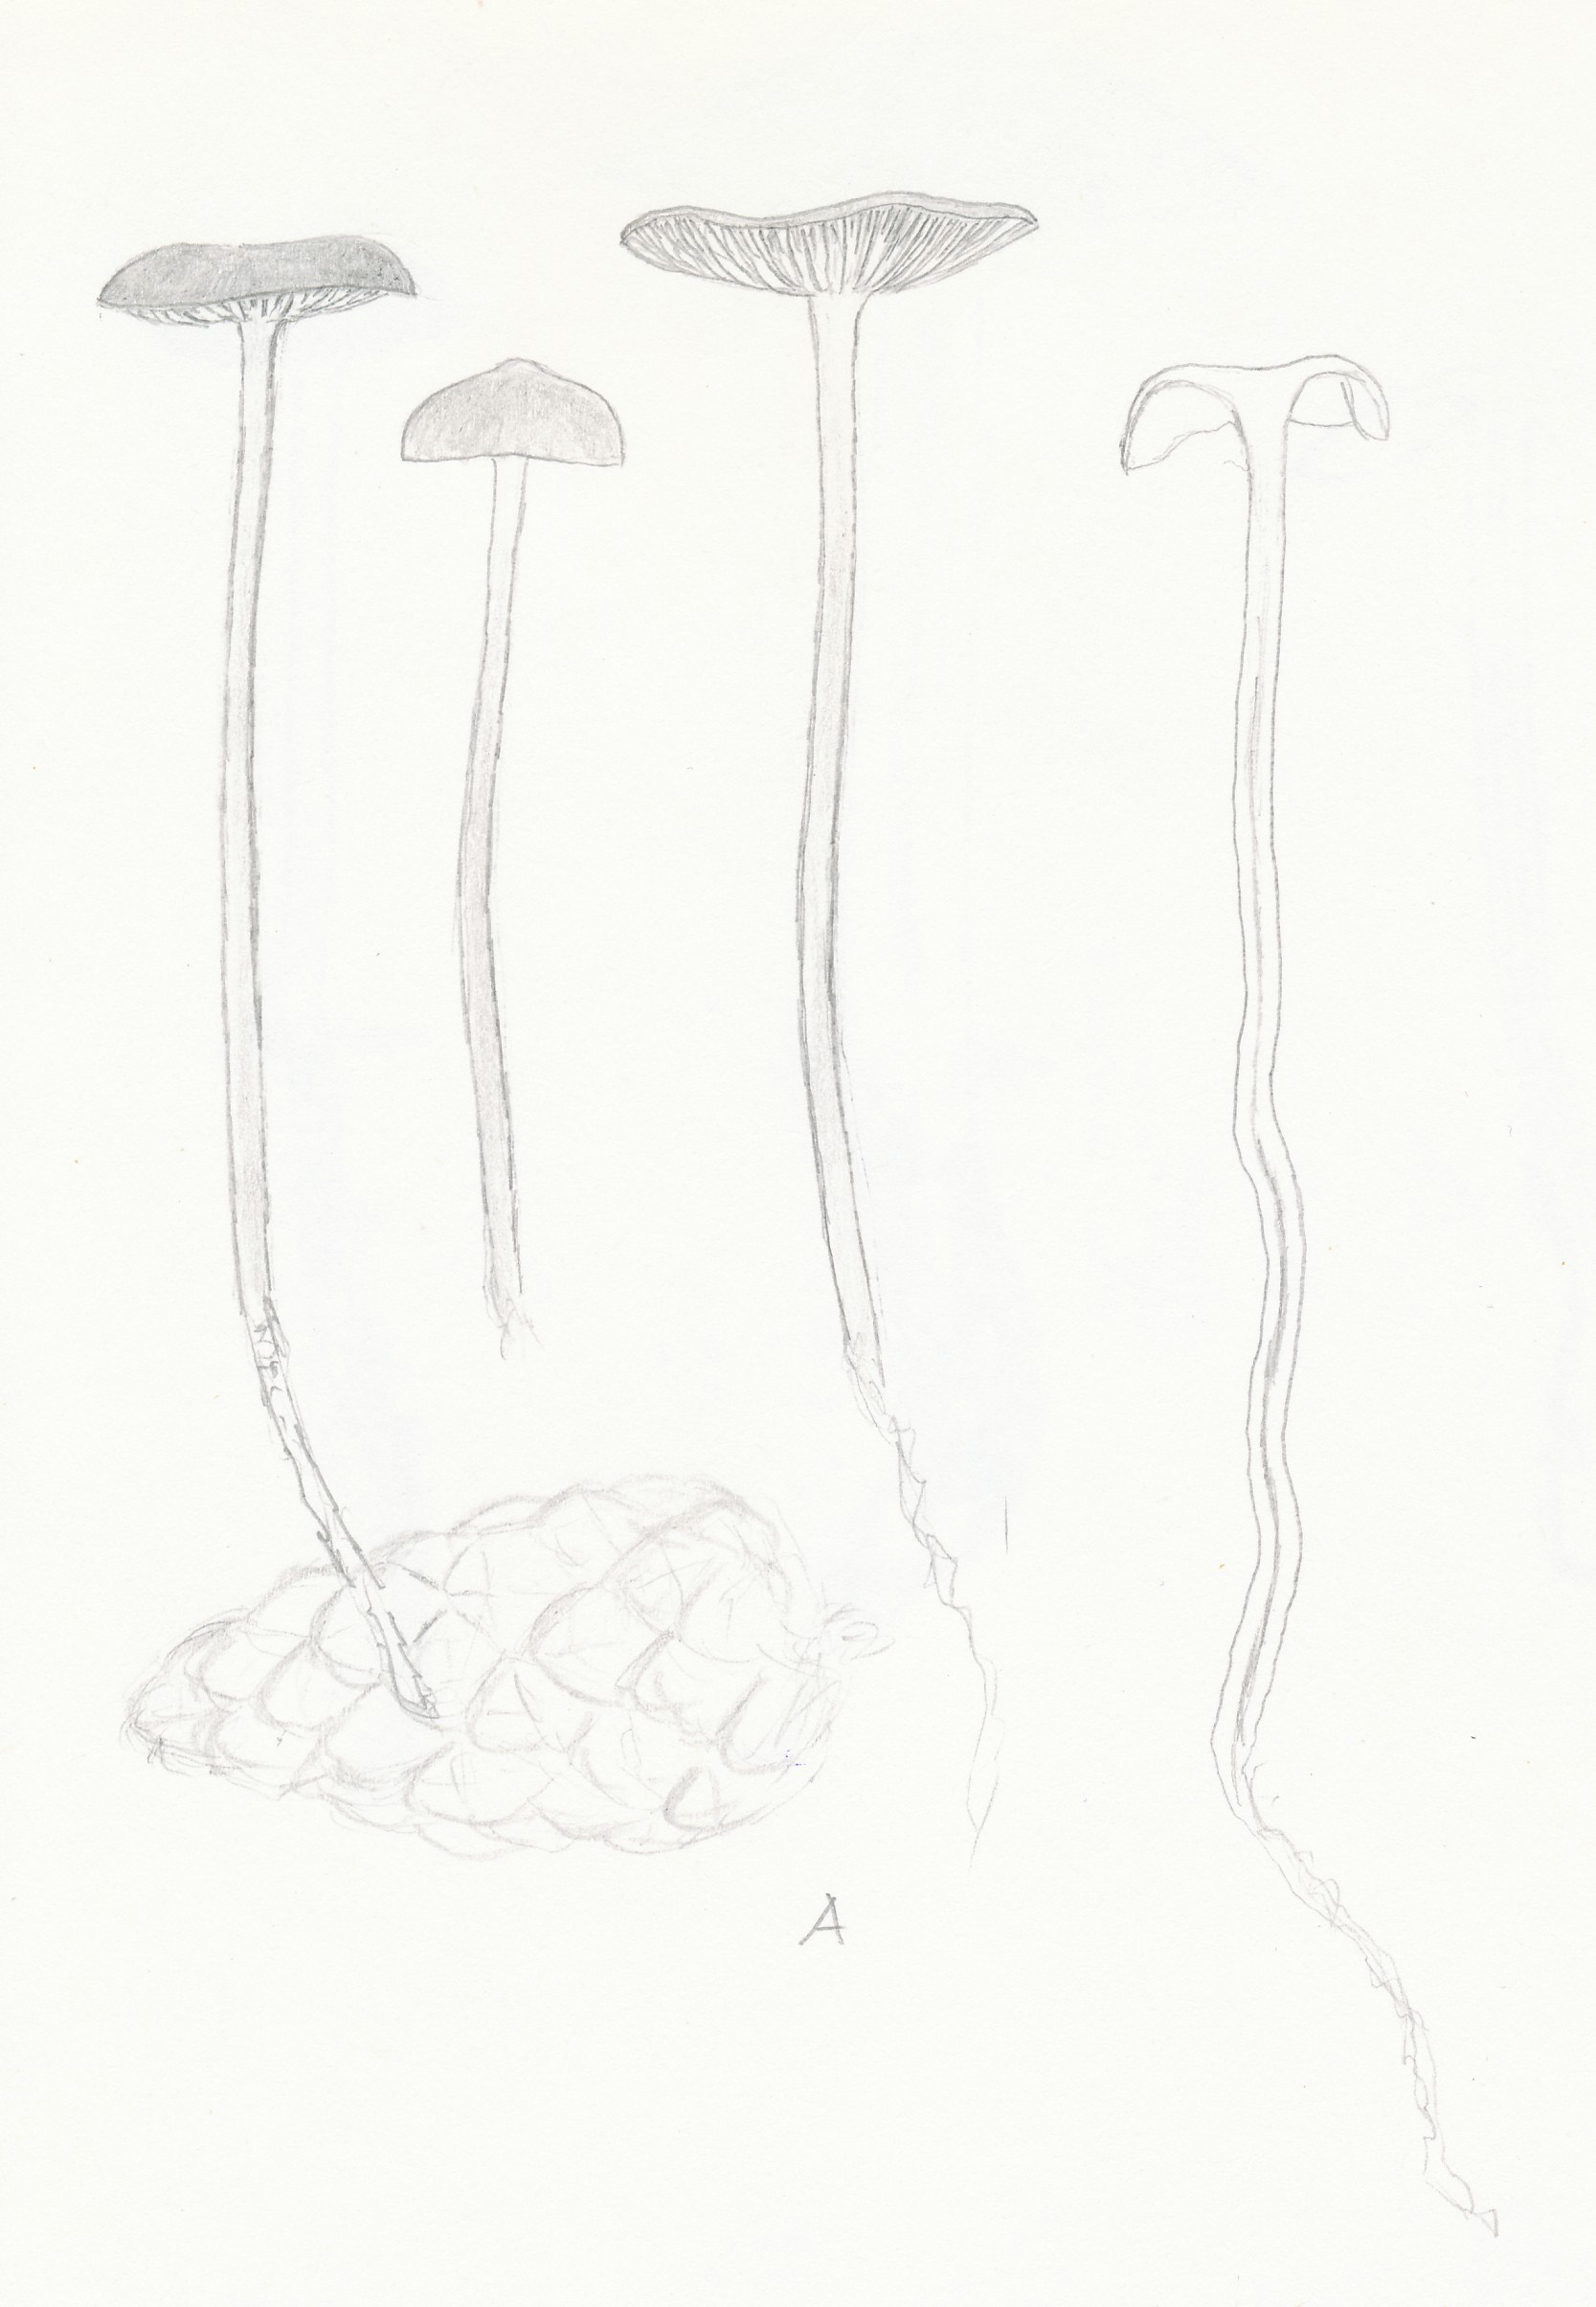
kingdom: Fungi
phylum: Basidiomycota
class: Agaricomycetes
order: Agaricales
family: Physalacriaceae
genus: Strobilurus
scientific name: Strobilurus stephanocystis
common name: fyrre-koglehat
